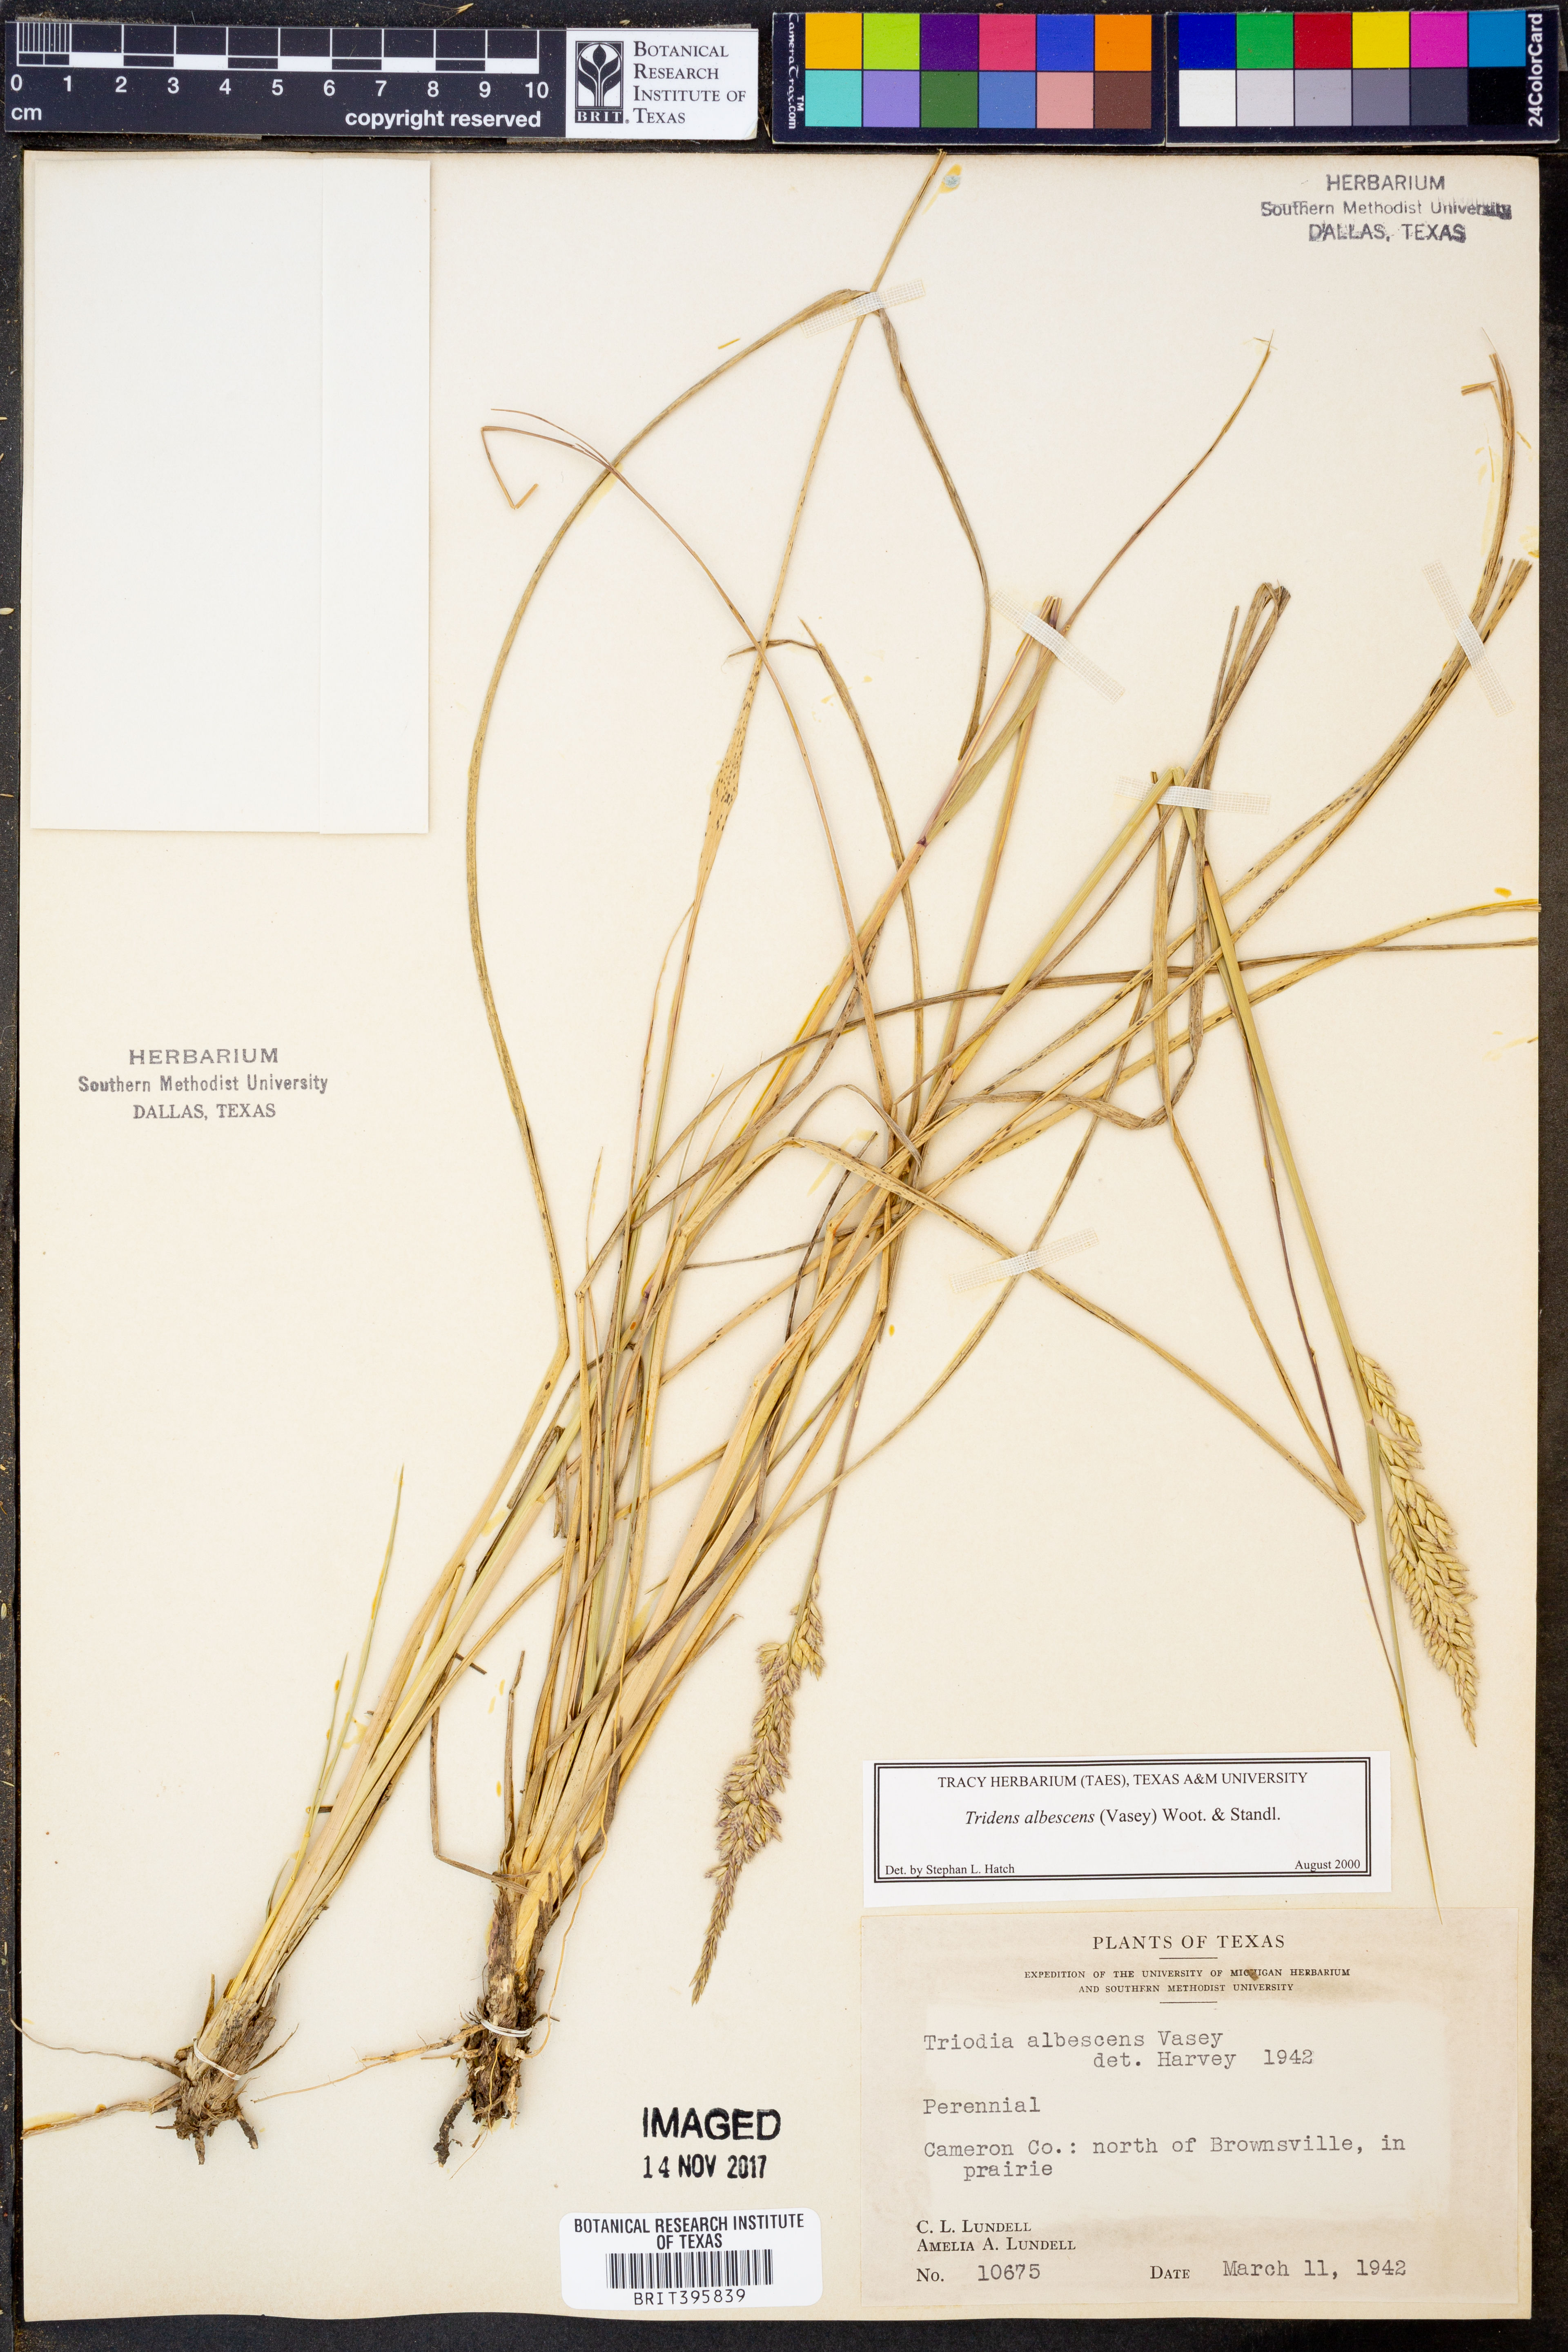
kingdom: Plantae
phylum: Tracheophyta
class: Liliopsida
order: Poales
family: Poaceae
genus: Tridens
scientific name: Tridens albescens
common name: White tridens
